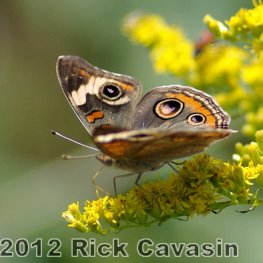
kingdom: Animalia
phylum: Arthropoda
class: Insecta
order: Lepidoptera
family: Nymphalidae
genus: Junonia
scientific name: Junonia coenia
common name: Common Buckeye
